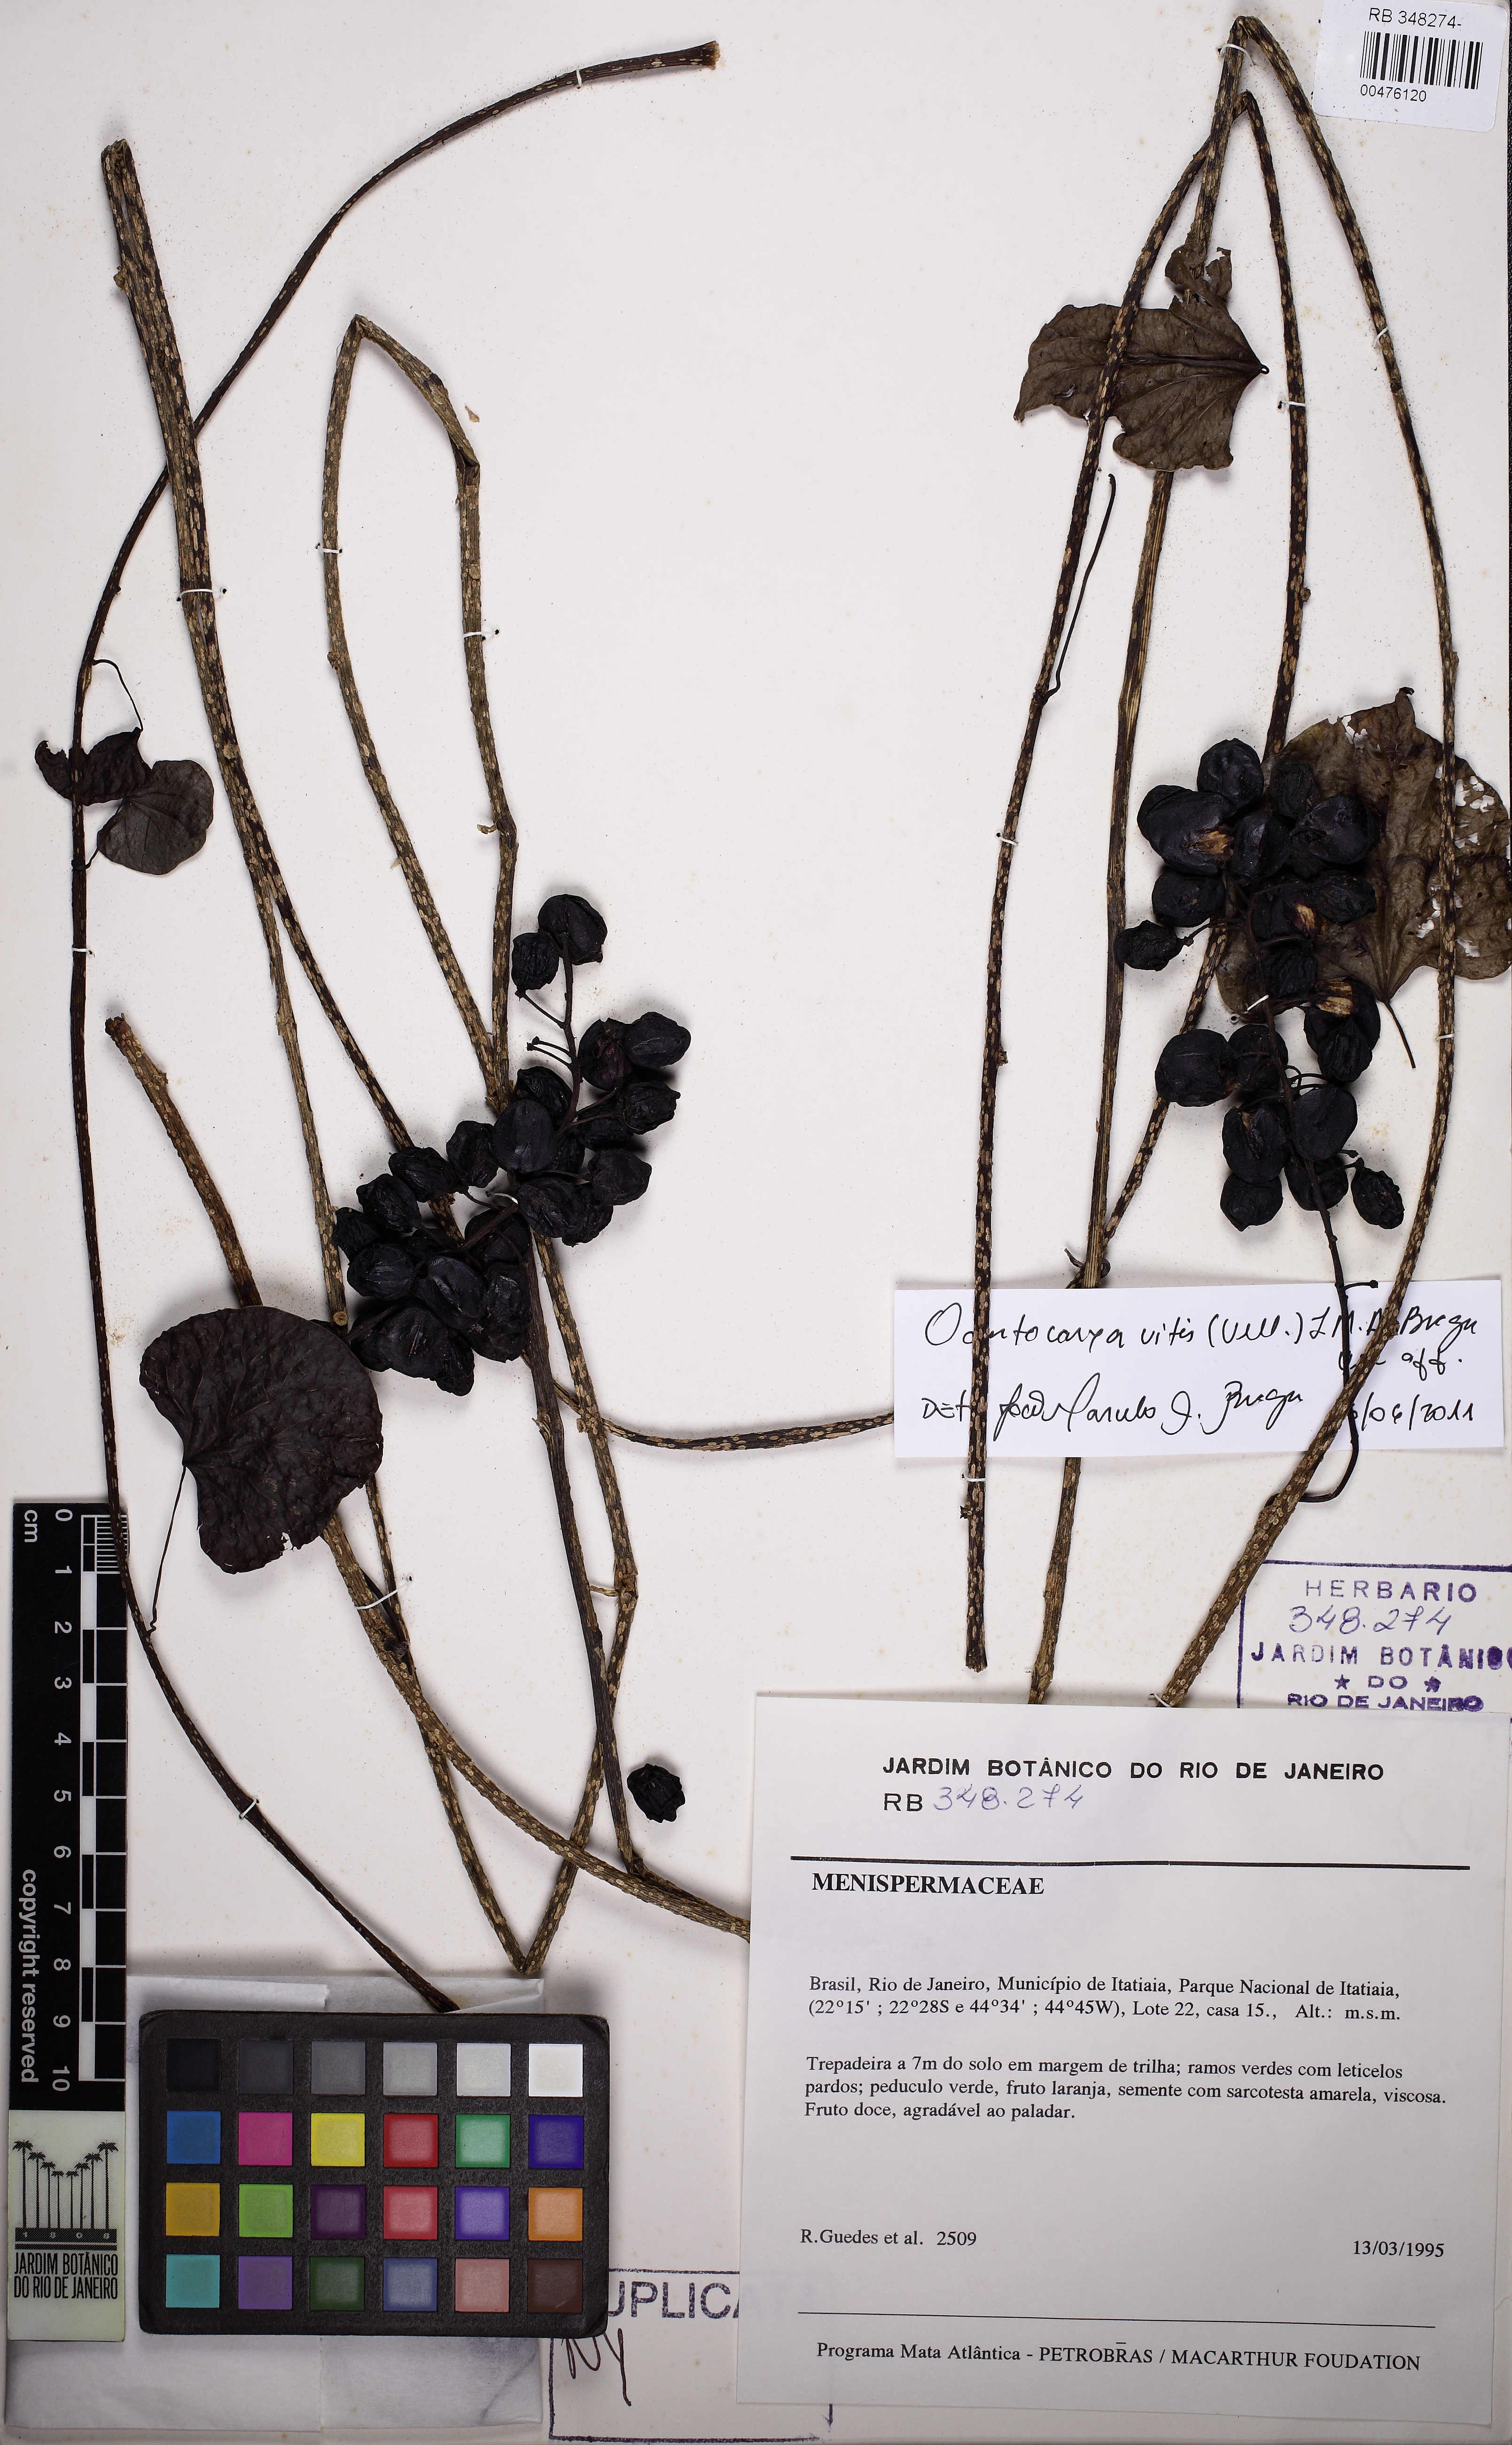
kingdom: Plantae
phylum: Tracheophyta
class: Magnoliopsida
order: Ranunculales
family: Menispermaceae
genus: Odontocarya
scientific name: Odontocarya vitis
